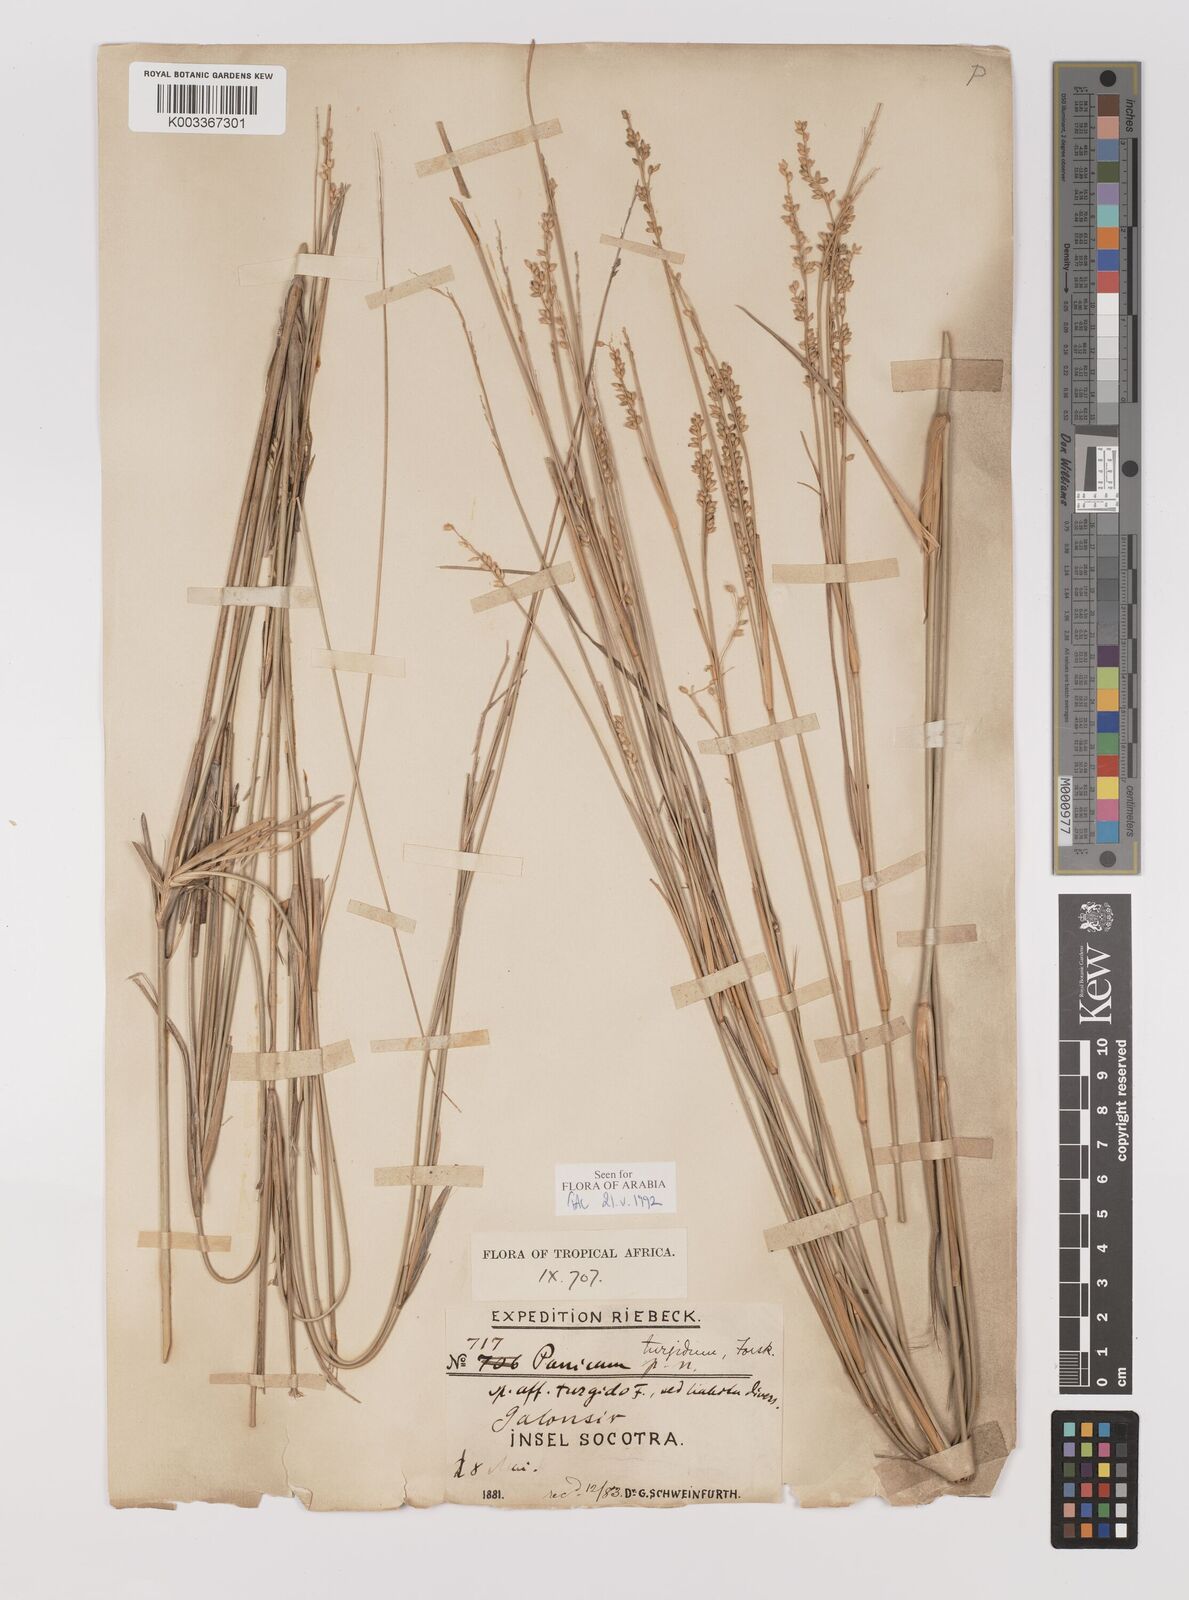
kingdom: Plantae
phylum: Tracheophyta
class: Liliopsida
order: Poales
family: Poaceae
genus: Panicum
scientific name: Panicum turgidum
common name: Desert grass
